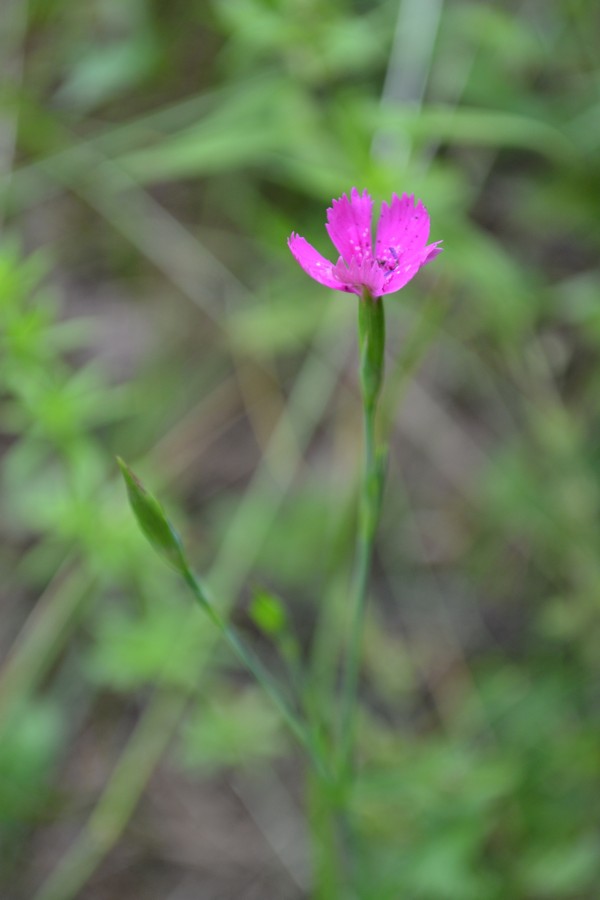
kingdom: Plantae
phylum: Tracheophyta
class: Magnoliopsida
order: Caryophyllales
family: Caryophyllaceae
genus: Dianthus
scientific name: Dianthus deltoides
